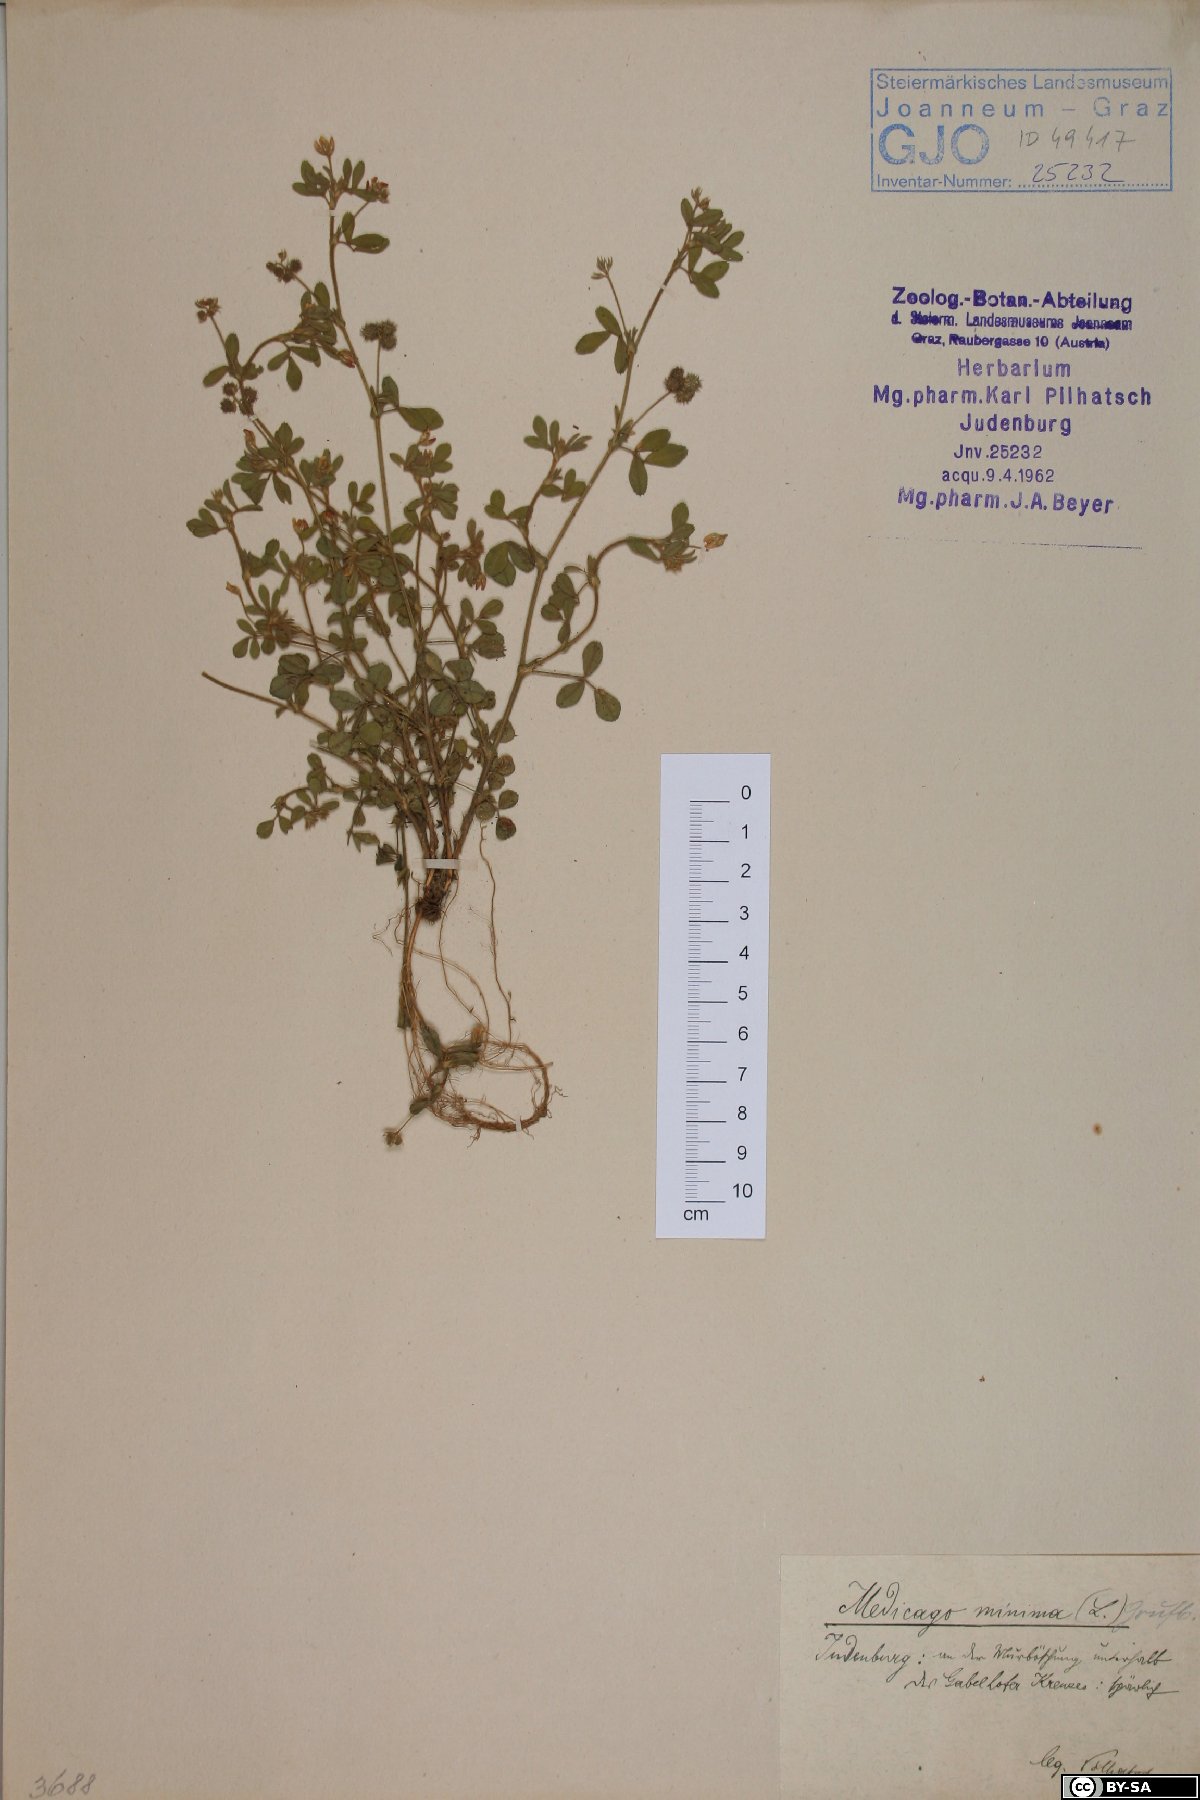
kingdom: Plantae
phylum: Tracheophyta
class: Magnoliopsida
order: Fabales
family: Fabaceae
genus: Medicago
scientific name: Medicago minima
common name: Little bur-clover
